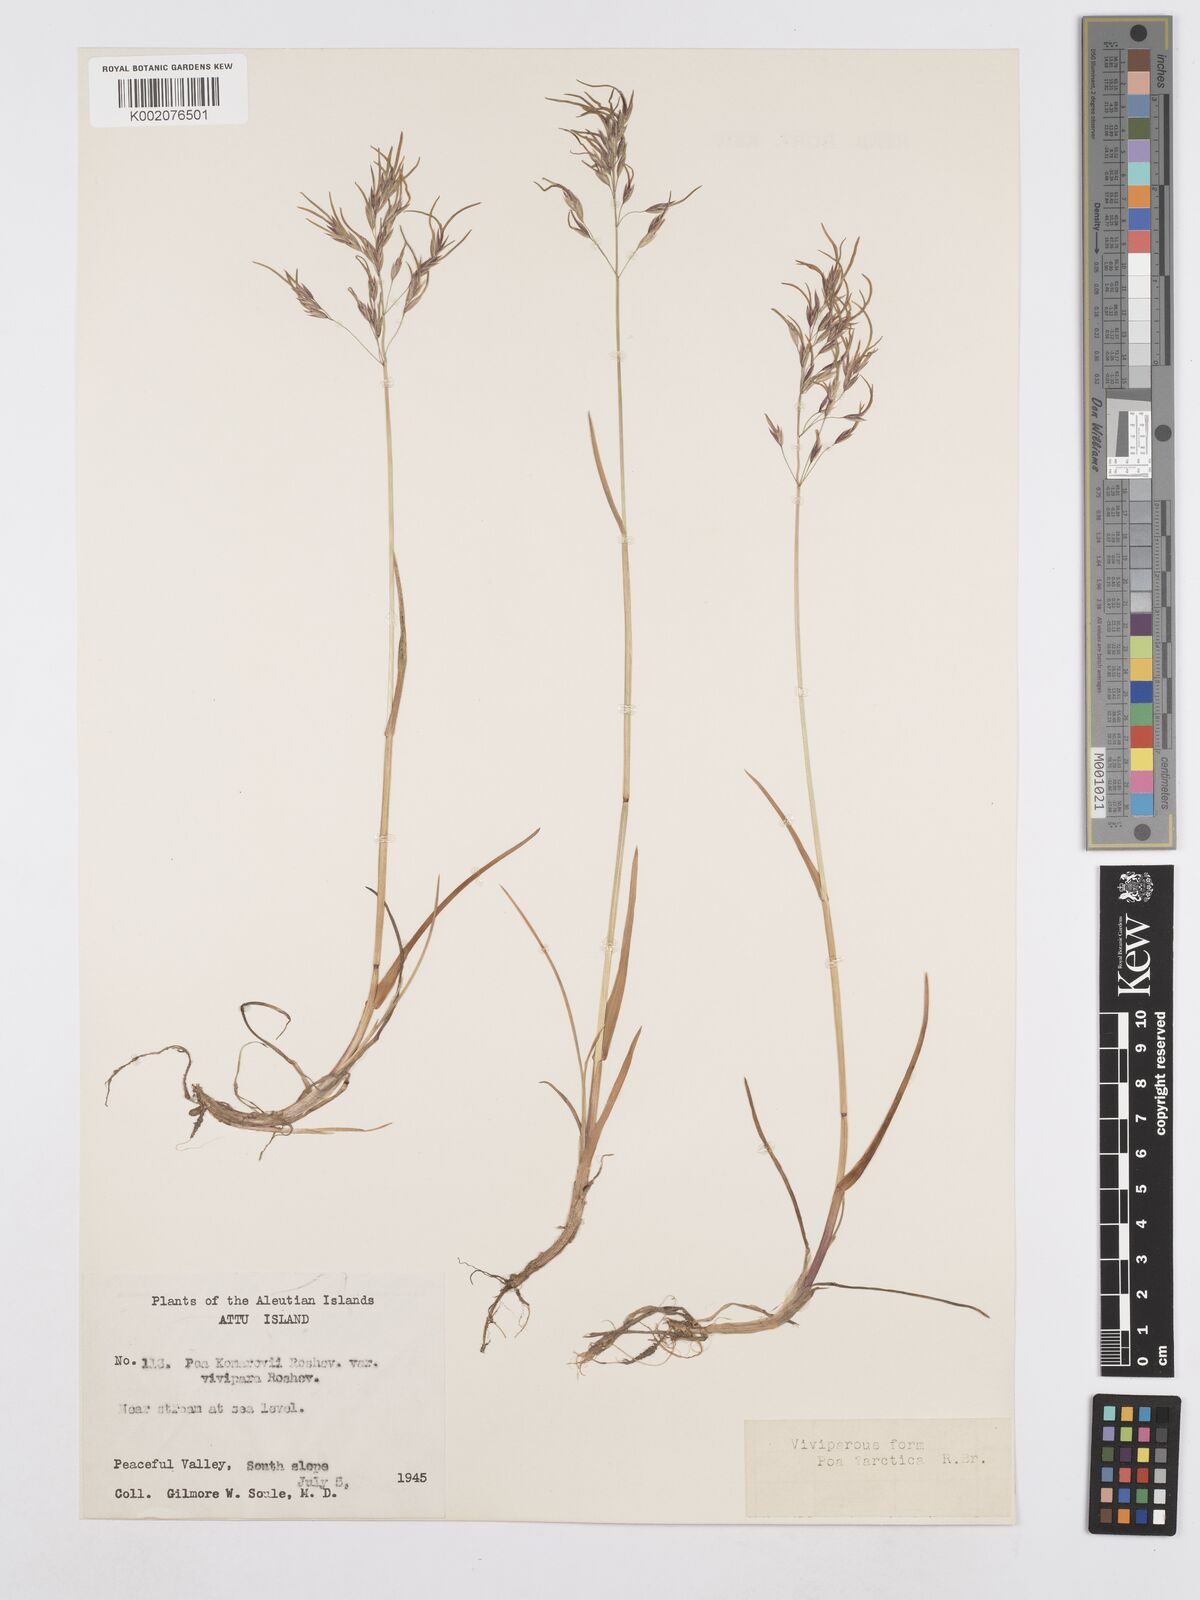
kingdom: Plantae
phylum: Tracheophyta
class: Liliopsida
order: Poales
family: Poaceae
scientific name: Poaceae
